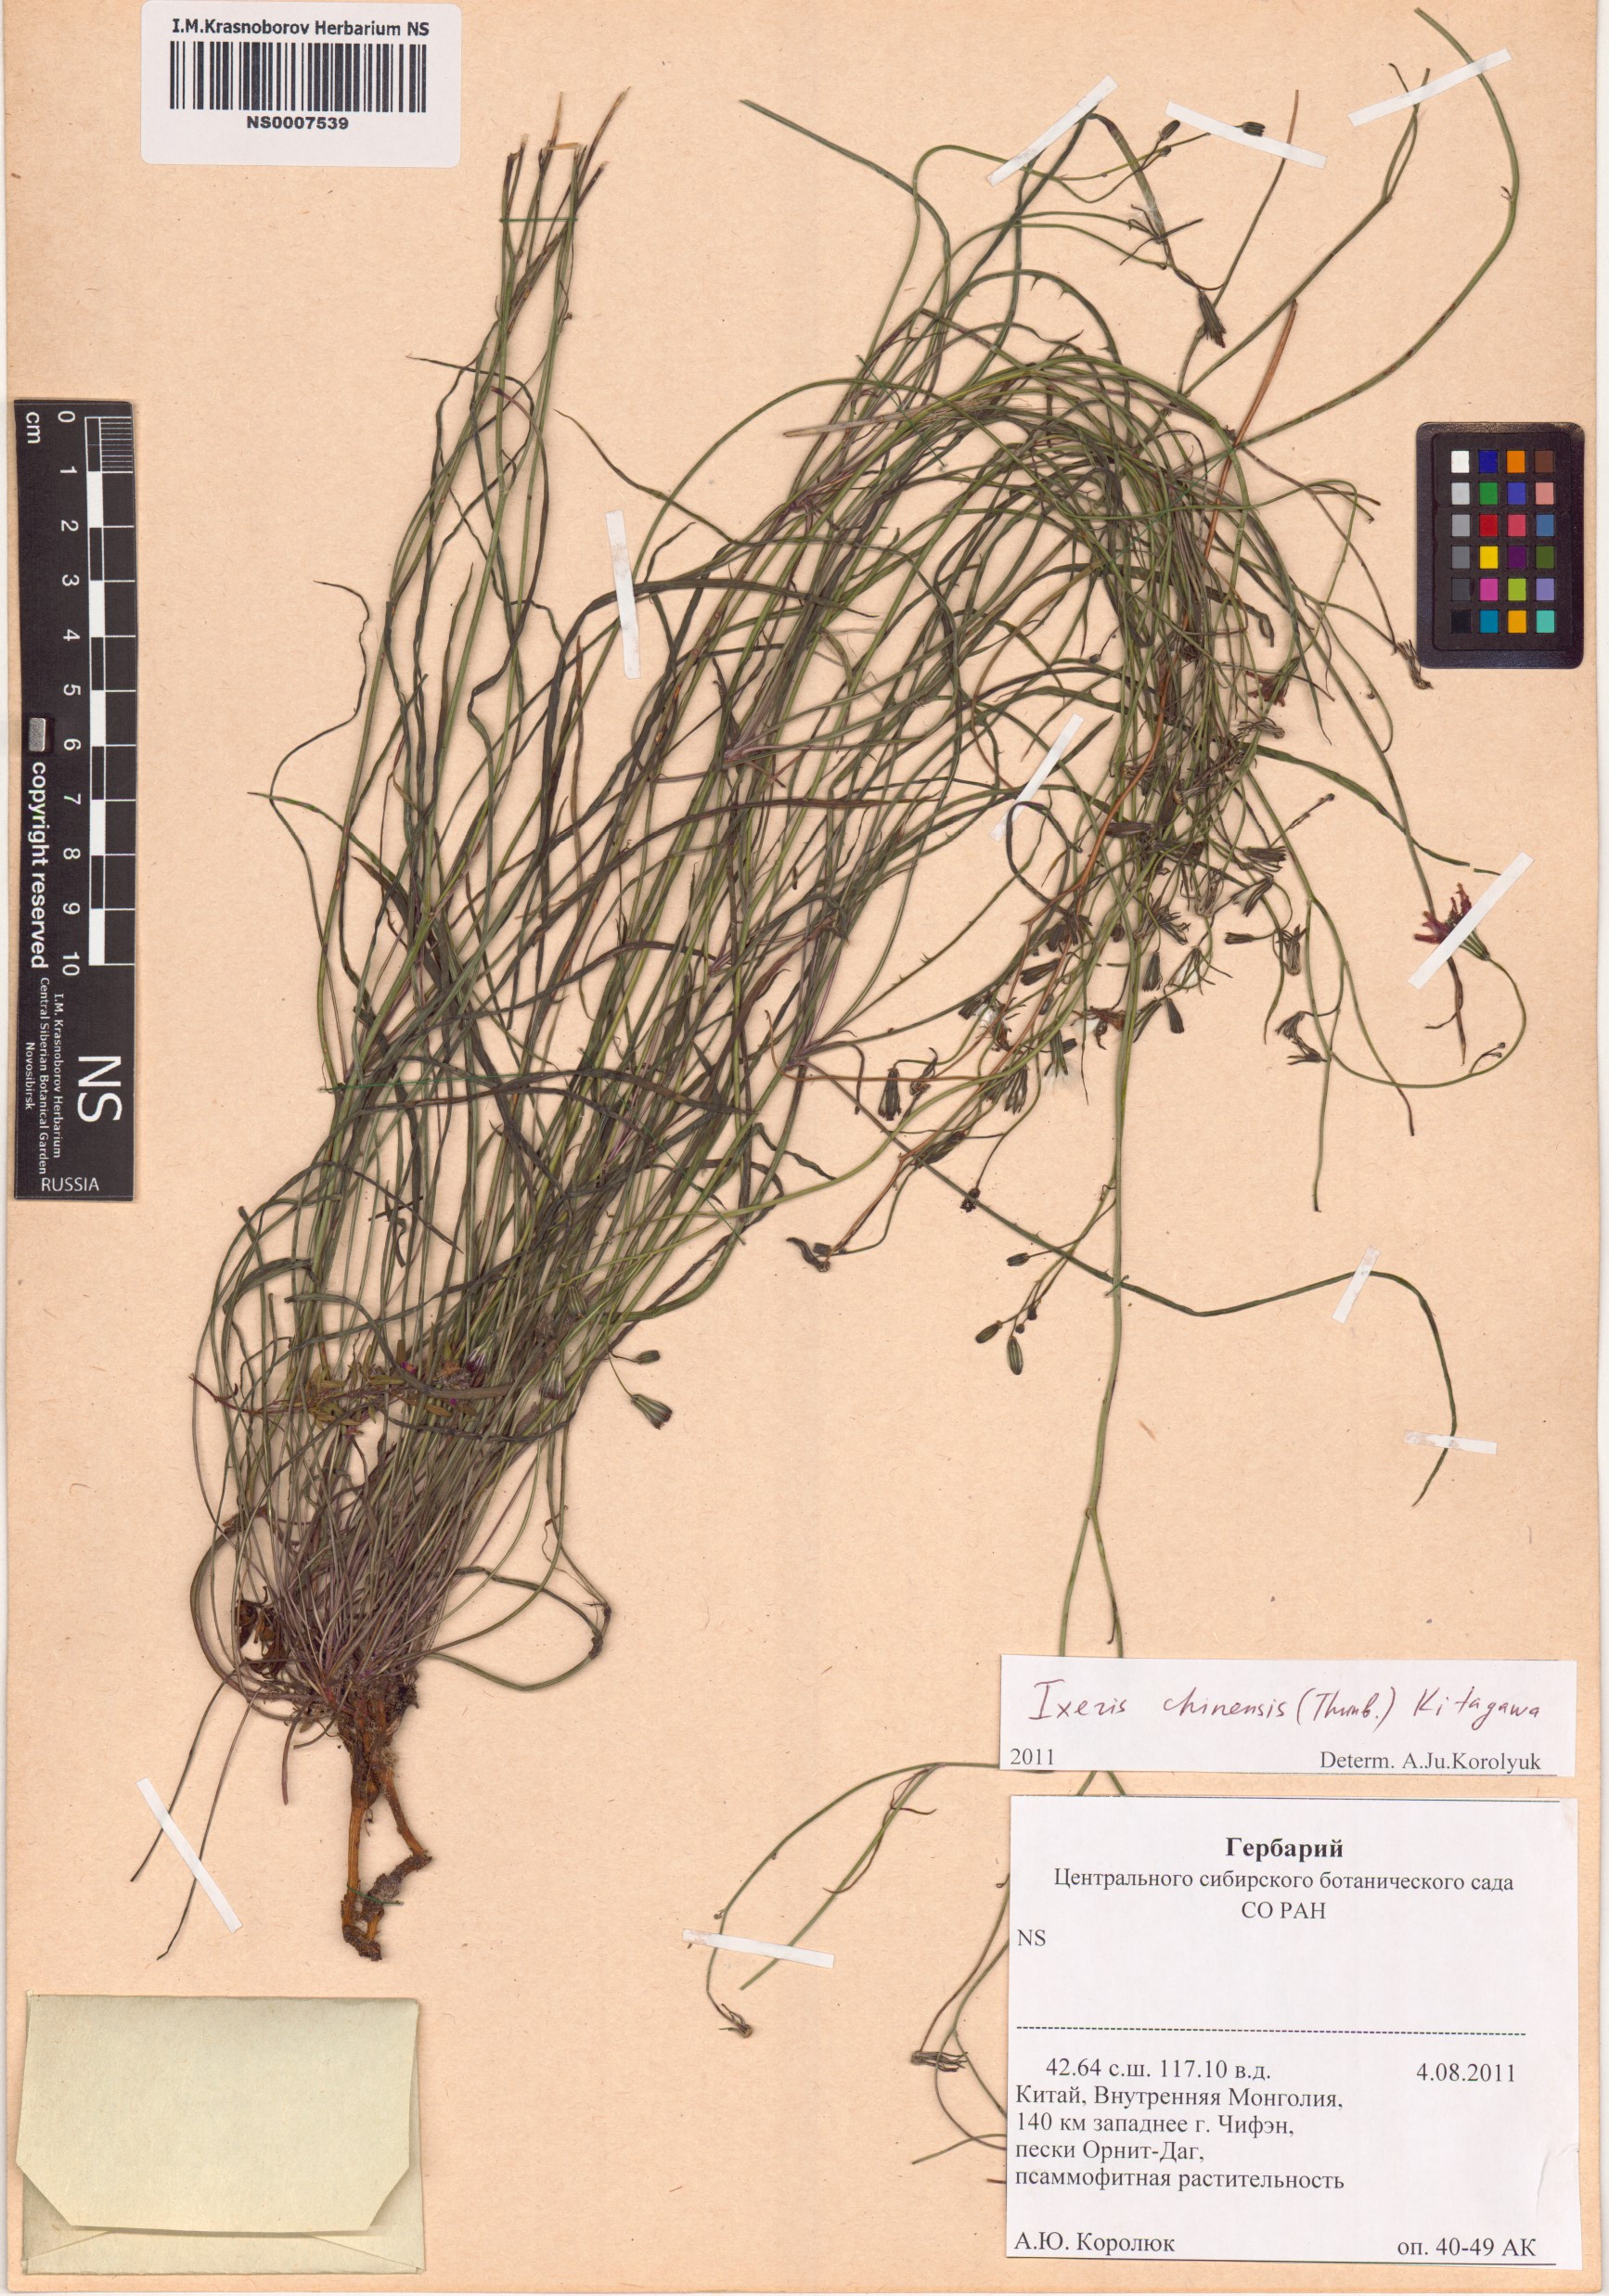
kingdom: Plantae
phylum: Tracheophyta
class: Magnoliopsida
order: Asterales
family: Asteraceae
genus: Ixeris
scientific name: Ixeris chinensis
